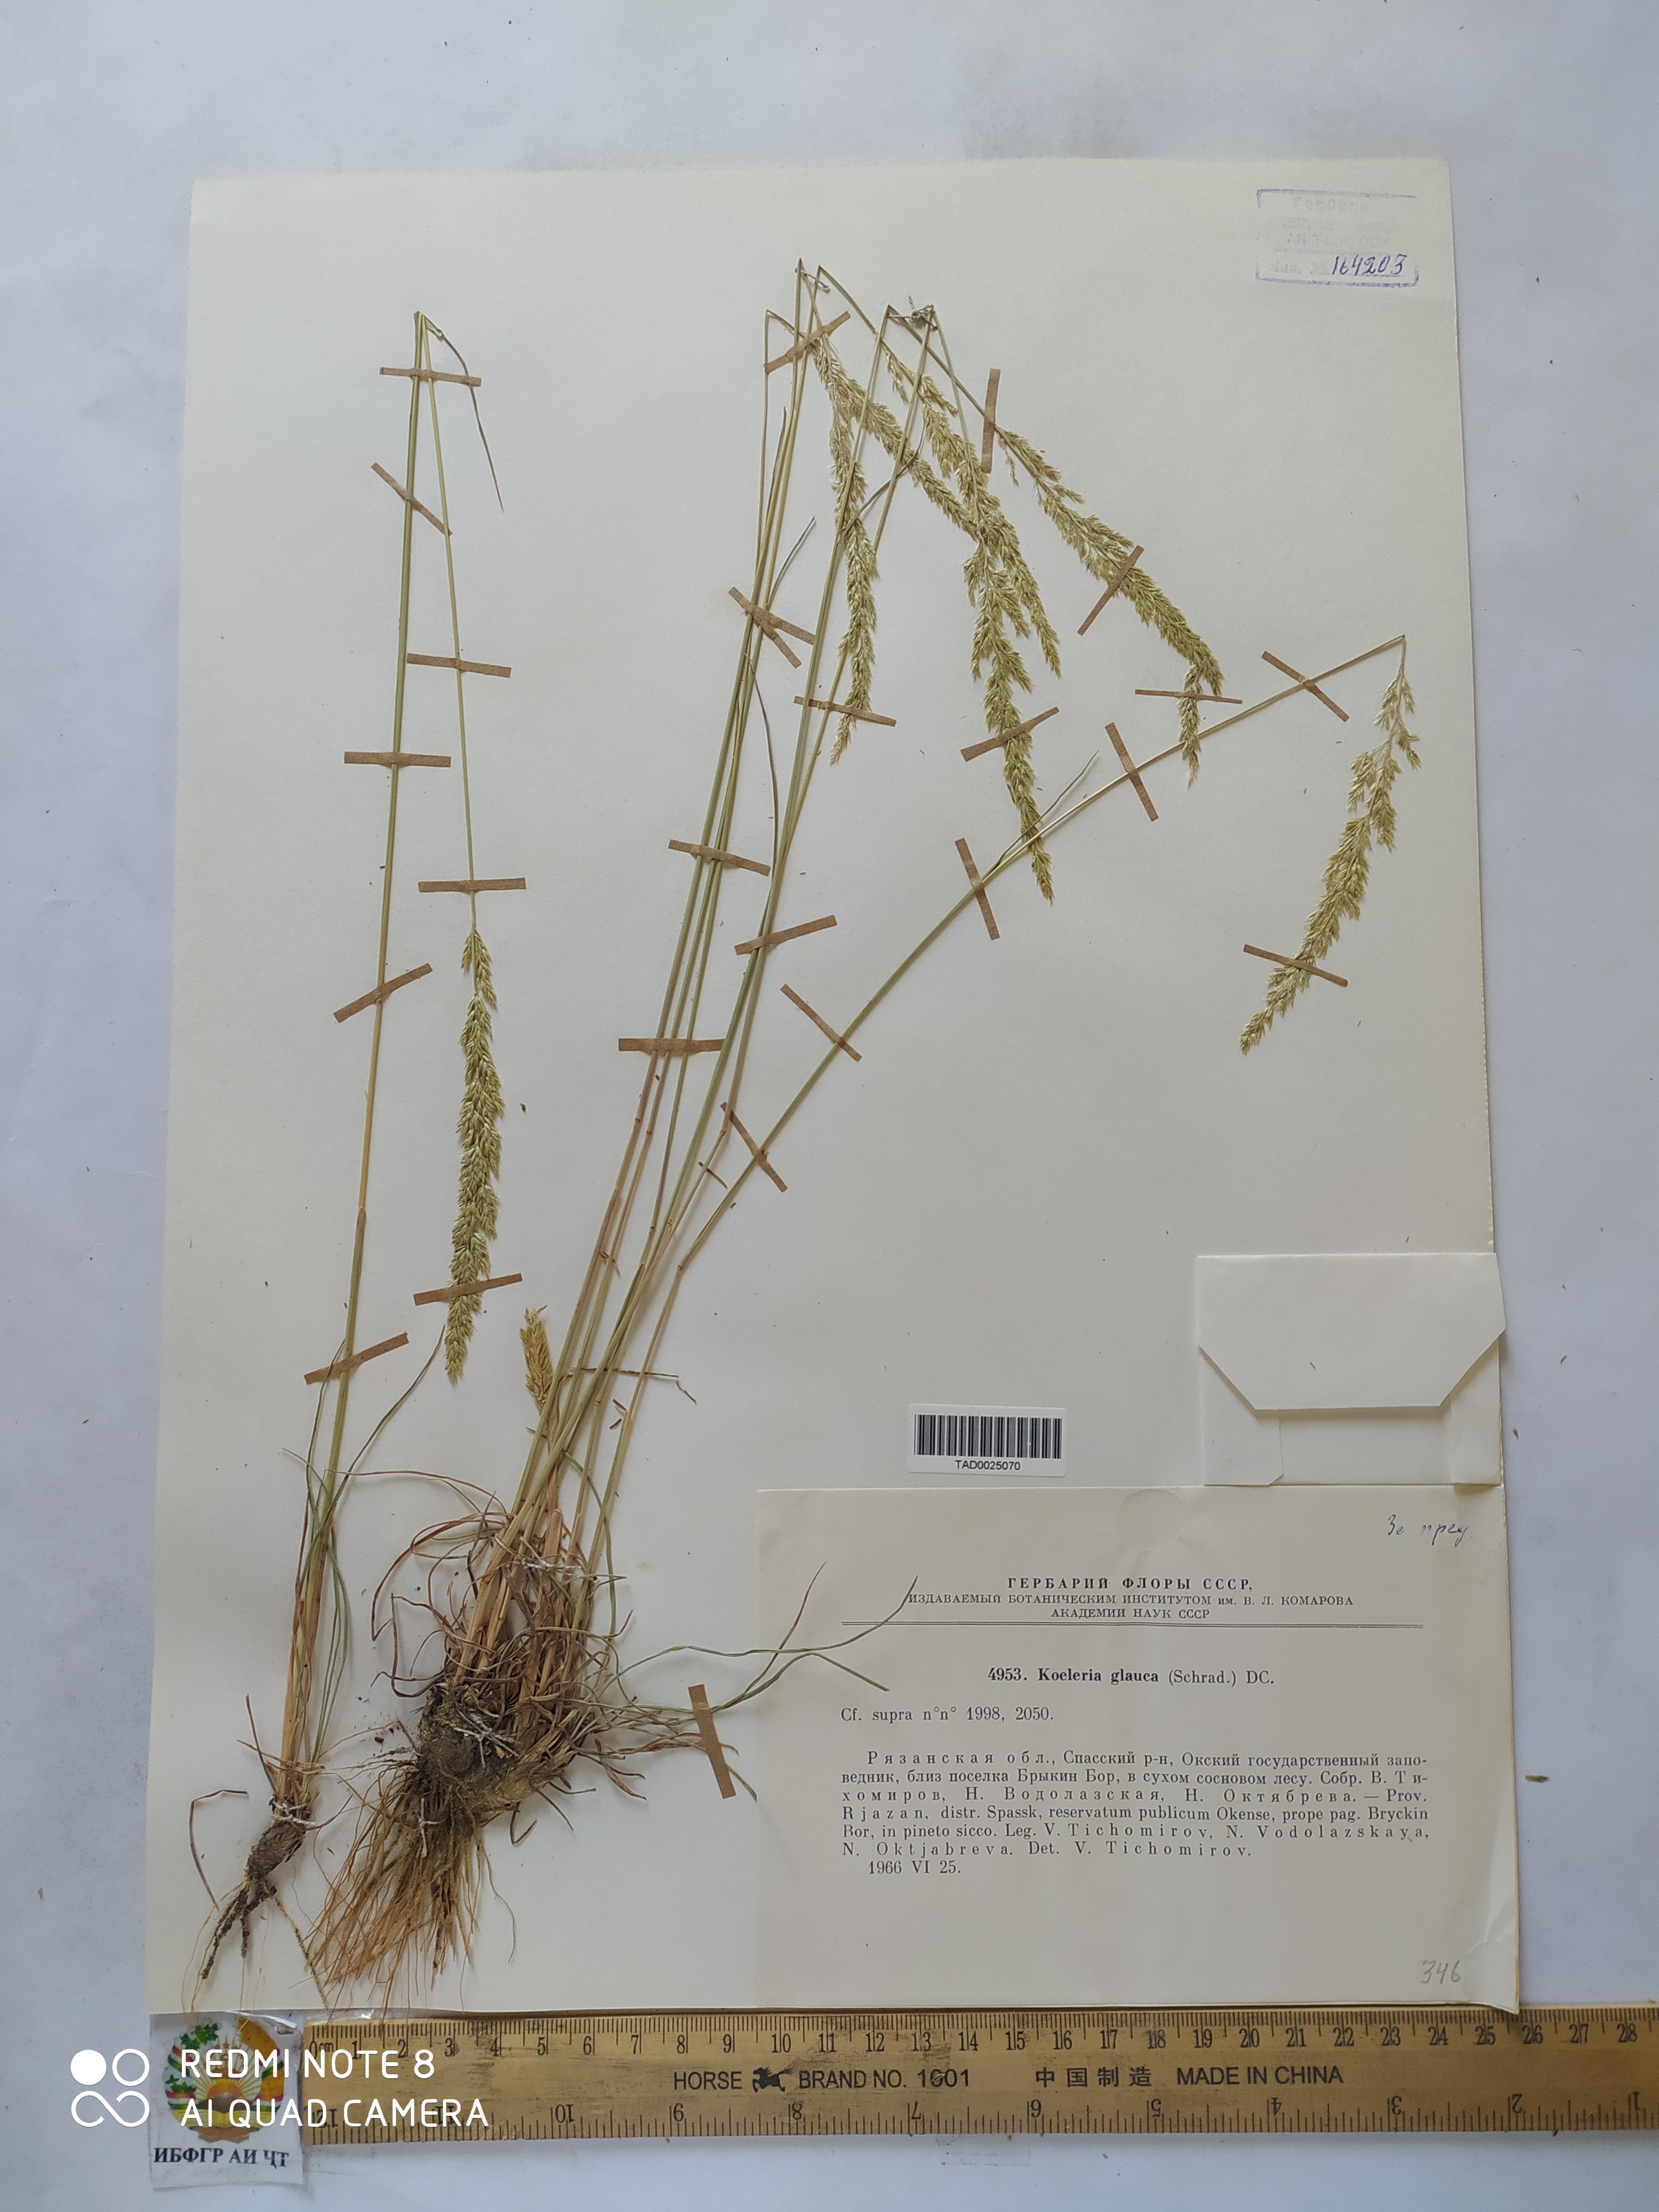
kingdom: Plantae
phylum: Tracheophyta
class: Liliopsida
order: Poales
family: Poaceae
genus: Koeleria
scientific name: Koeleria glauca
